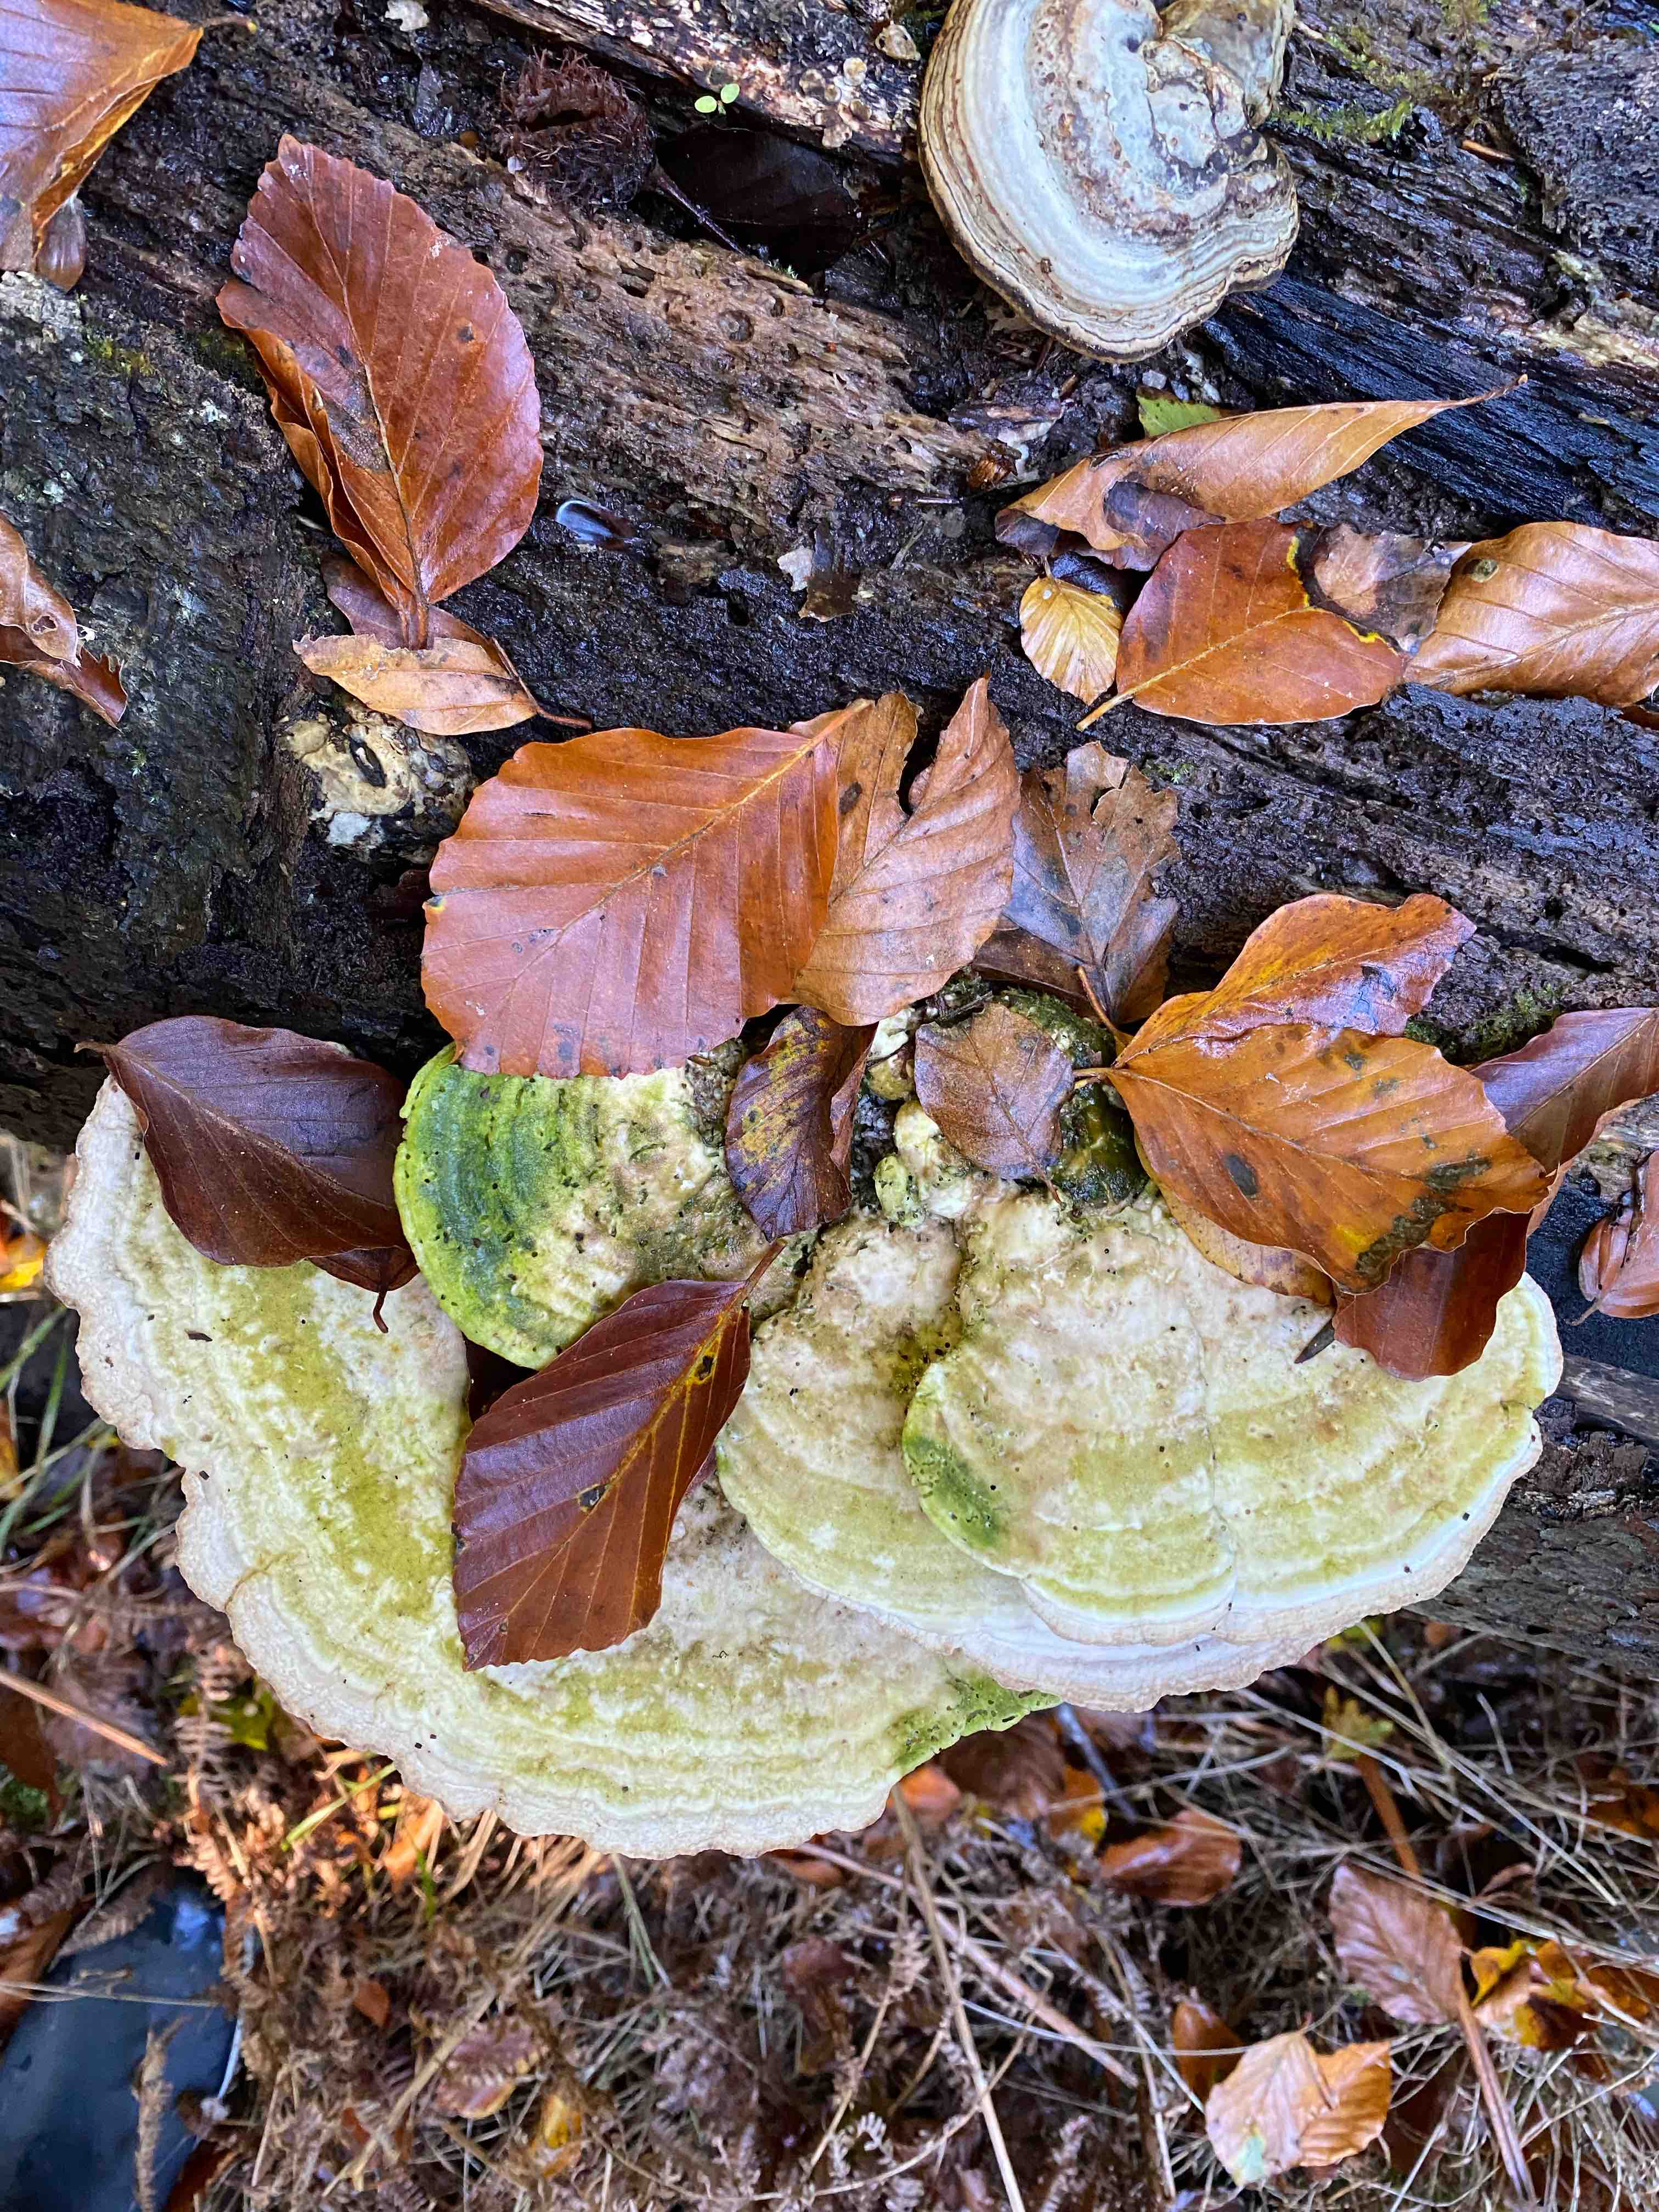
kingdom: Fungi
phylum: Basidiomycota
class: Agaricomycetes
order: Polyporales
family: Polyporaceae
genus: Trametes
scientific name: Trametes
